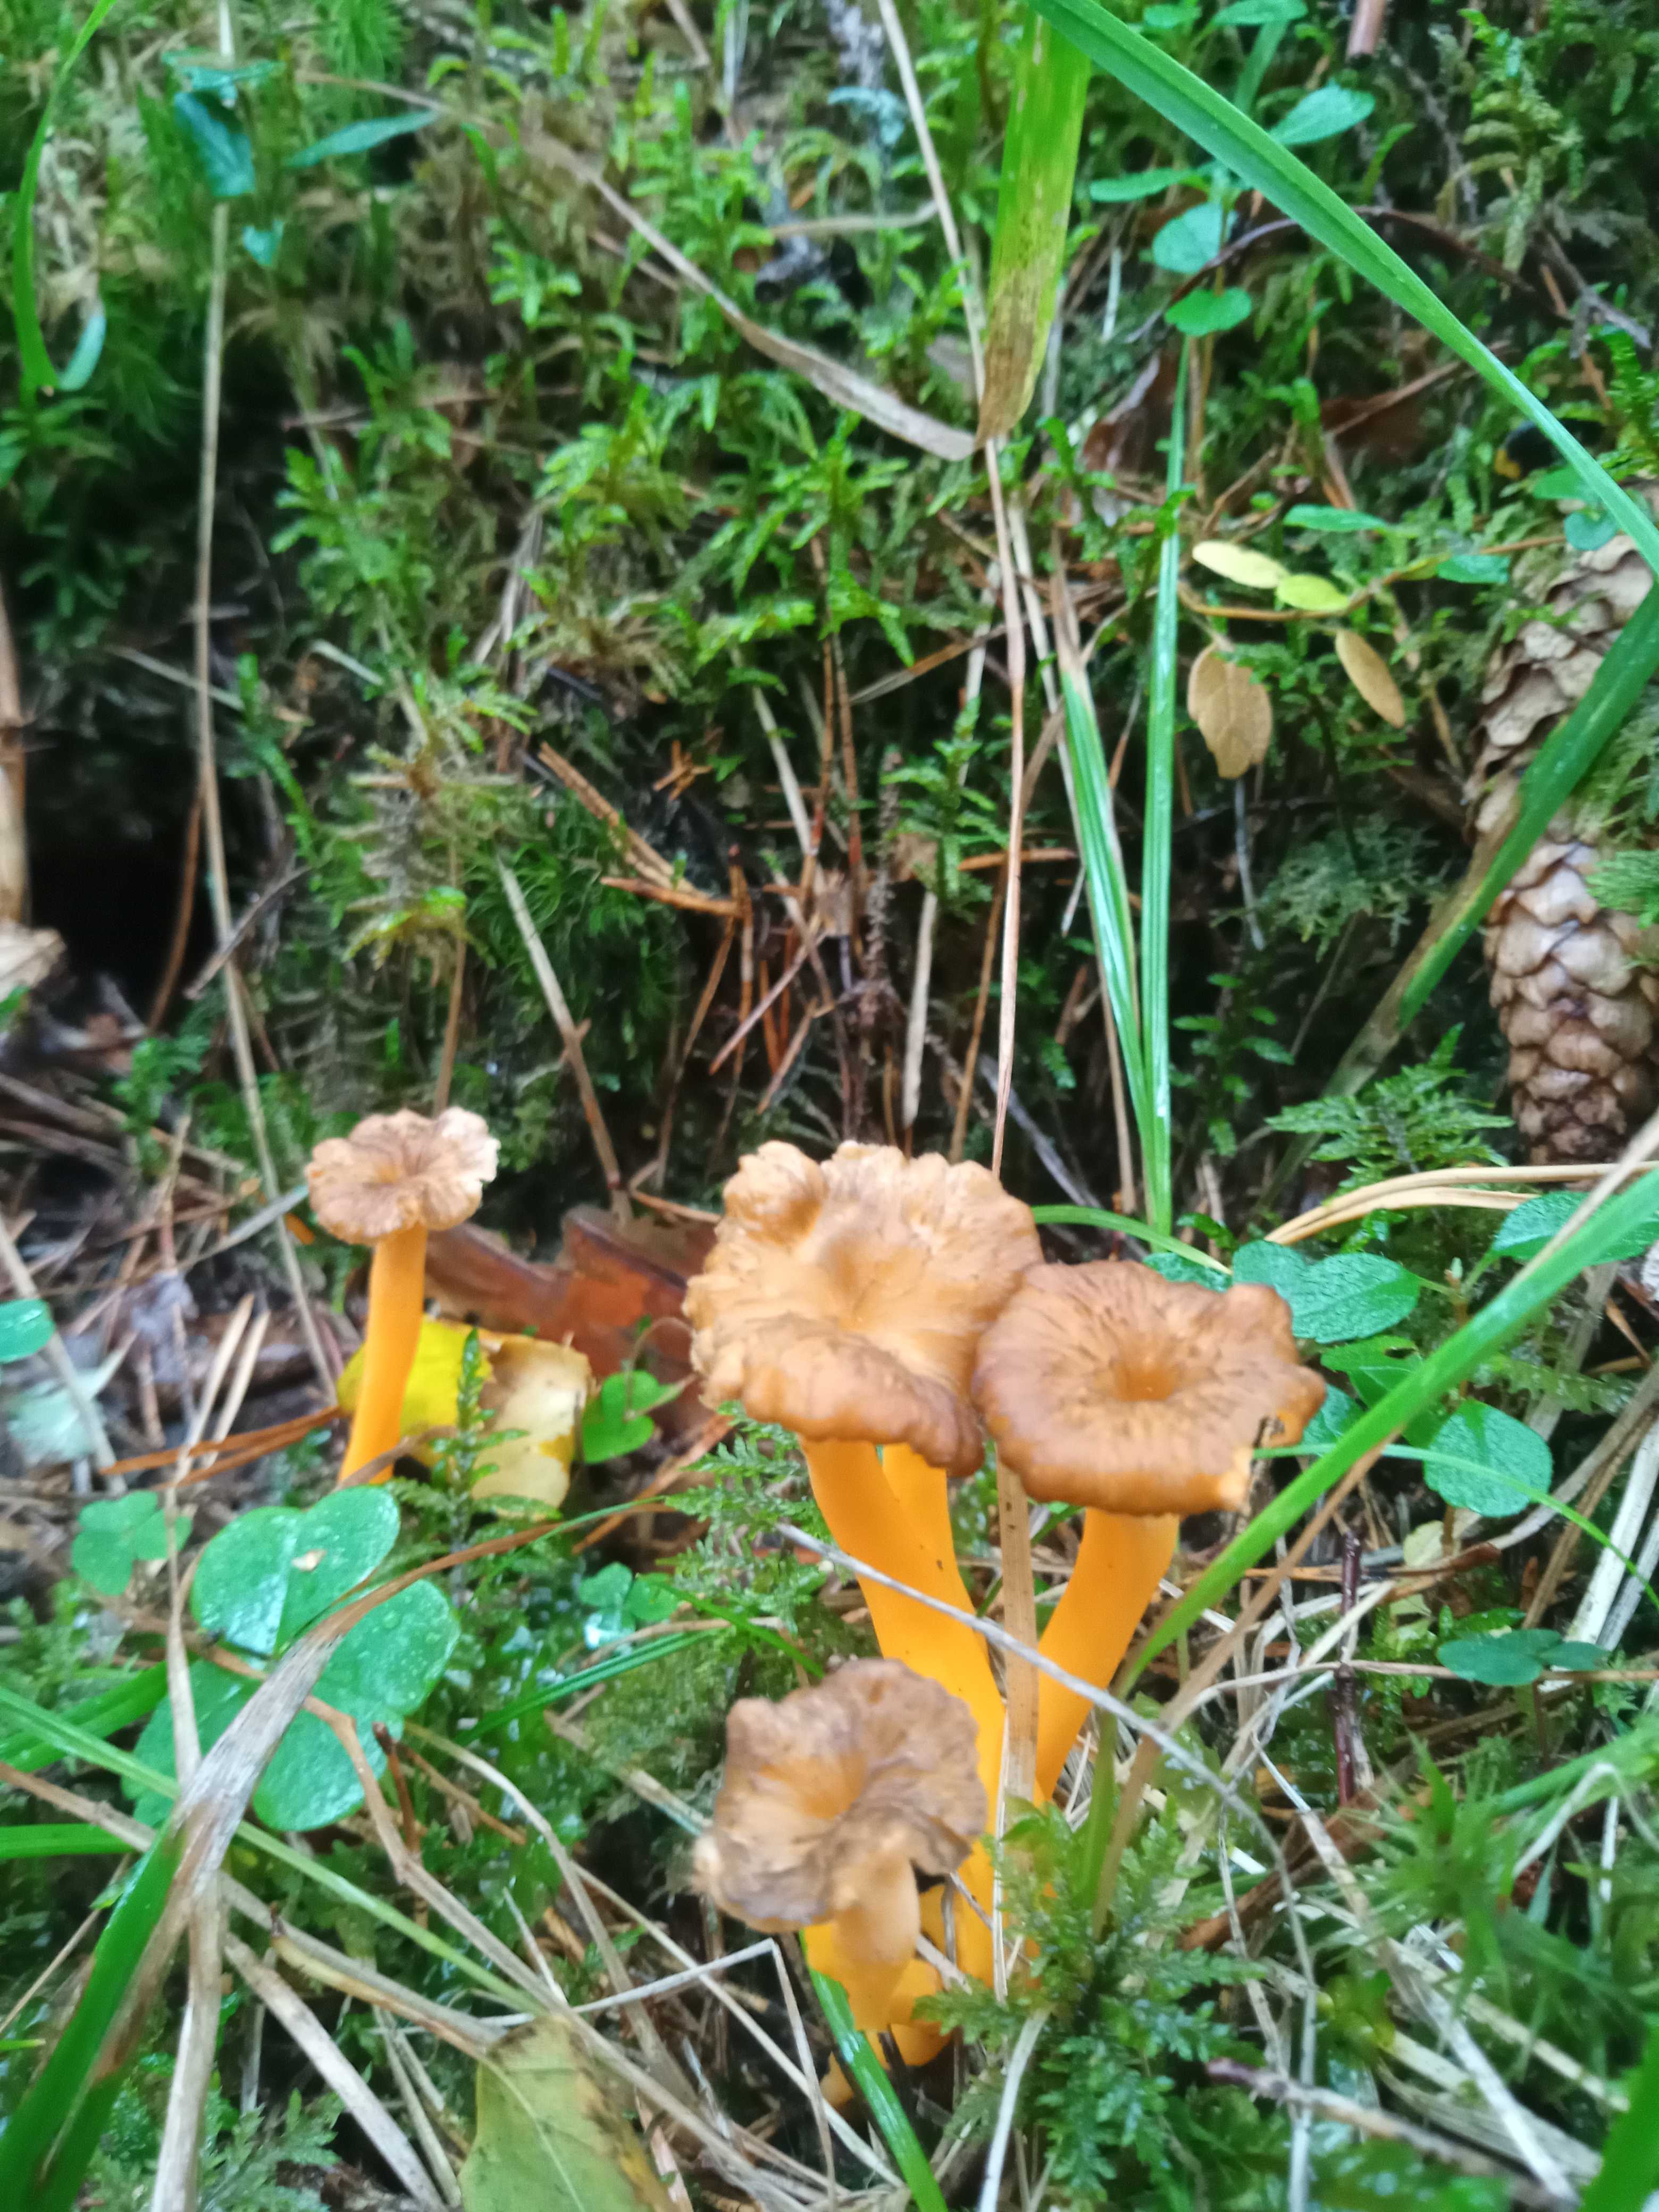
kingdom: Fungi
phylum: Basidiomycota
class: Agaricomycetes
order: Cantharellales
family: Hydnaceae
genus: Craterellus
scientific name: Craterellus lutescens
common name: gylden kantarel
